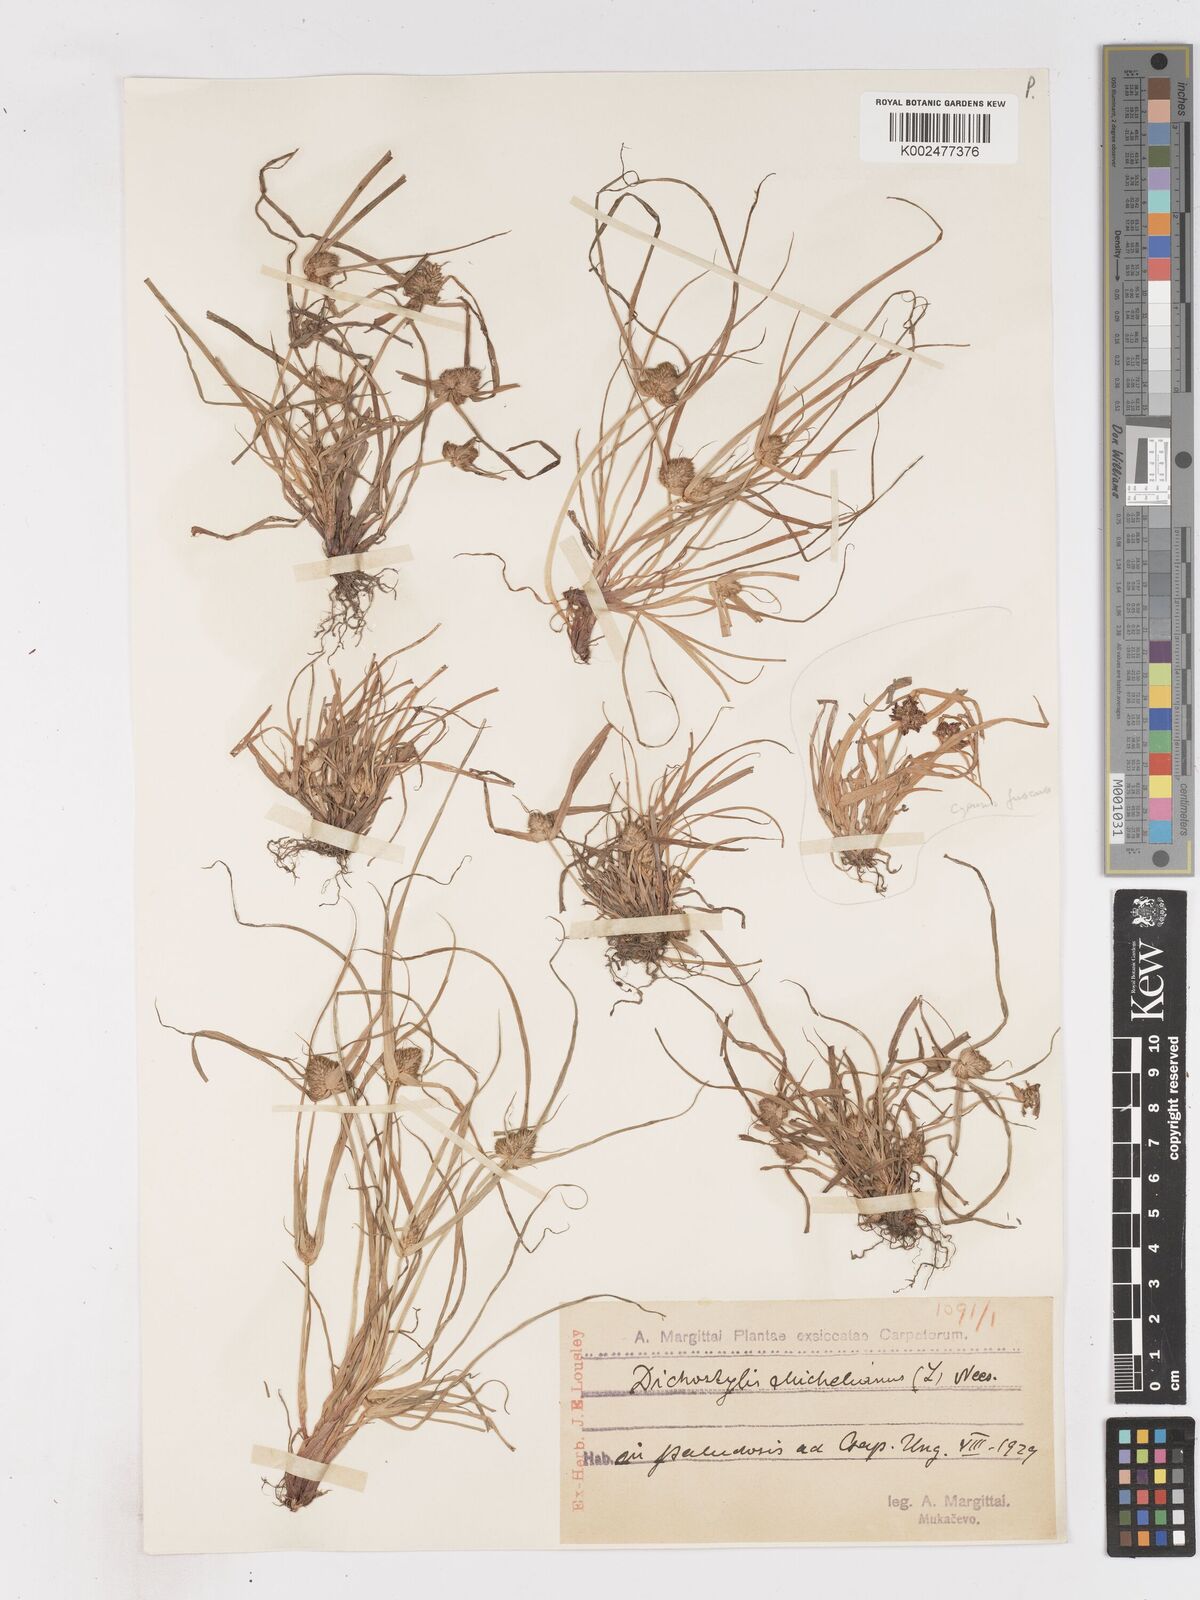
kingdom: Plantae
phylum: Tracheophyta
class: Liliopsida
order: Poales
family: Cyperaceae
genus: Cyperus
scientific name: Cyperus michelianus
